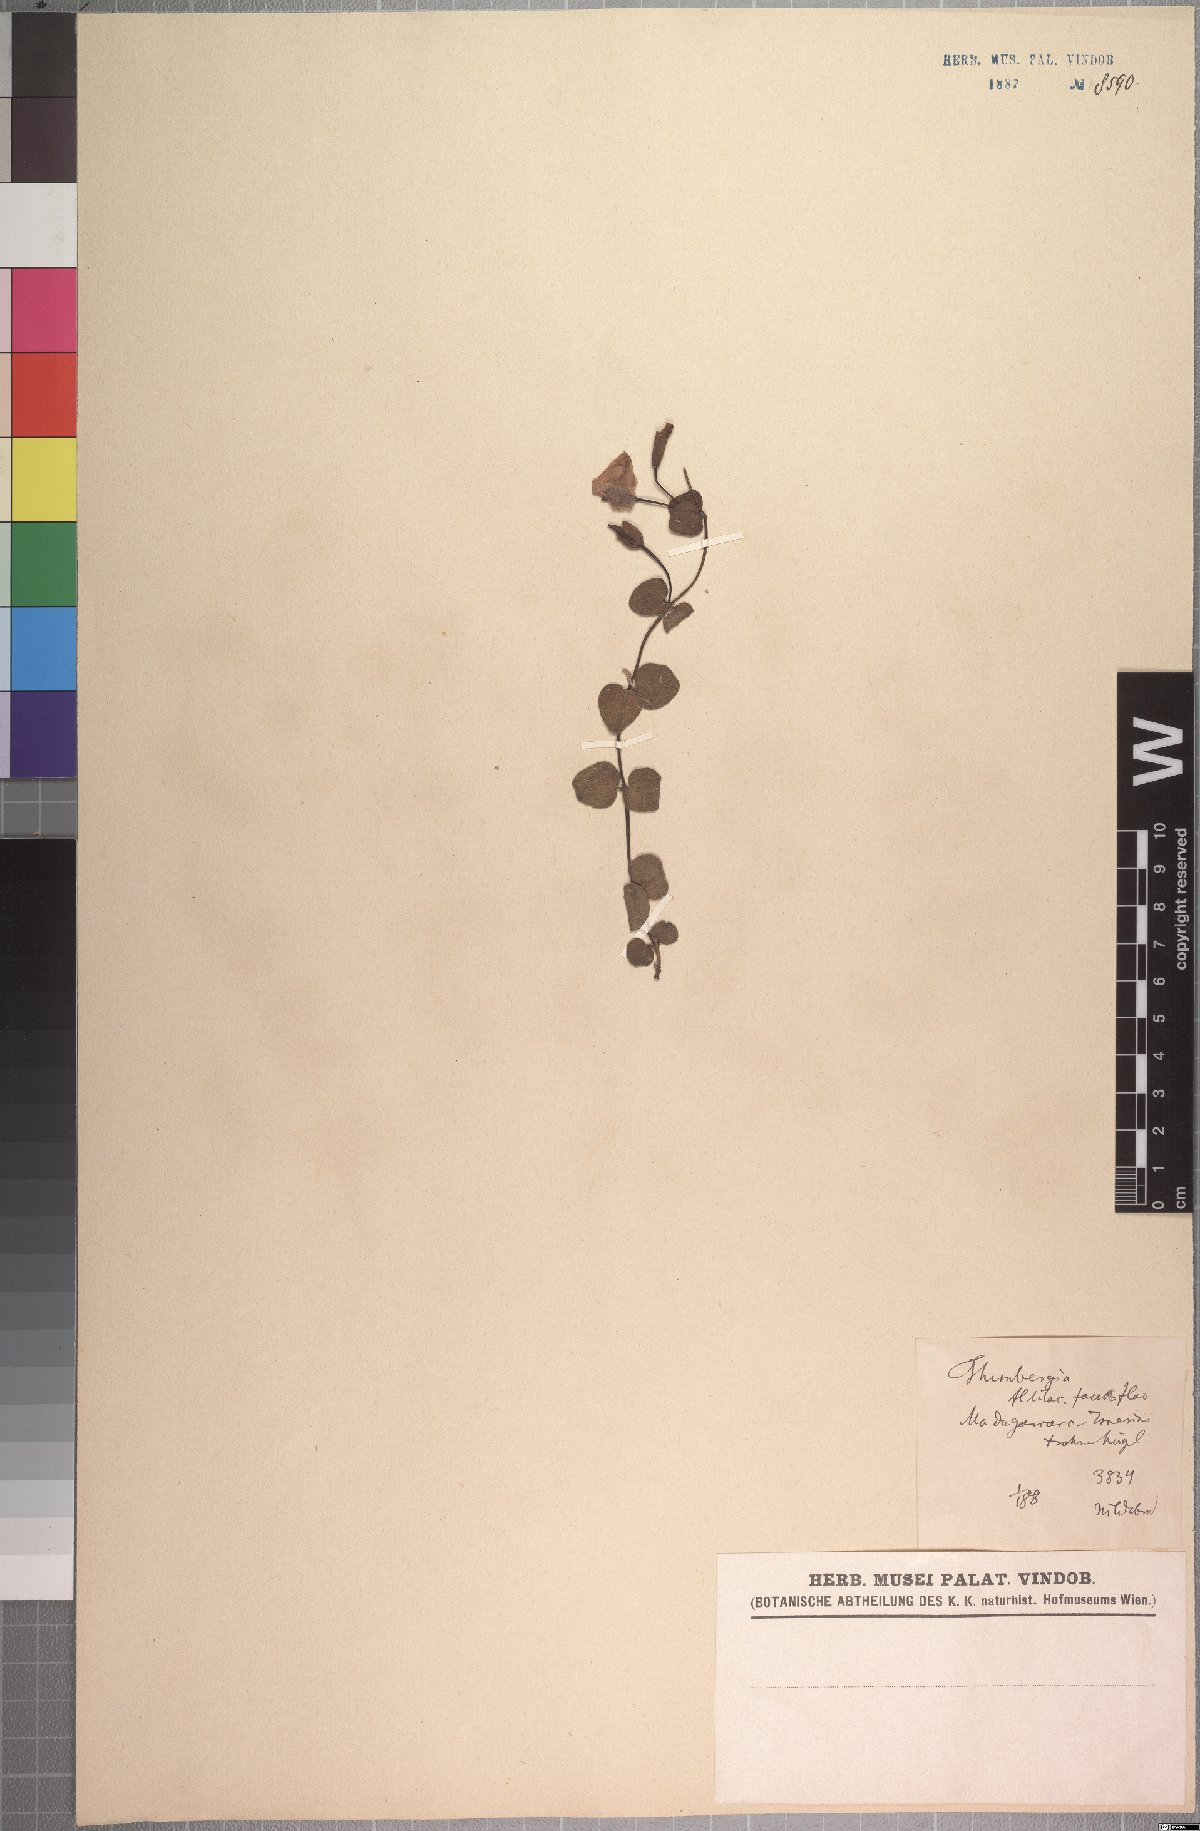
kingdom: Plantae
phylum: Tracheophyta
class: Magnoliopsida
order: Lamiales
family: Acanthaceae
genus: Thunbergia
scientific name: Thunbergia cyanea
